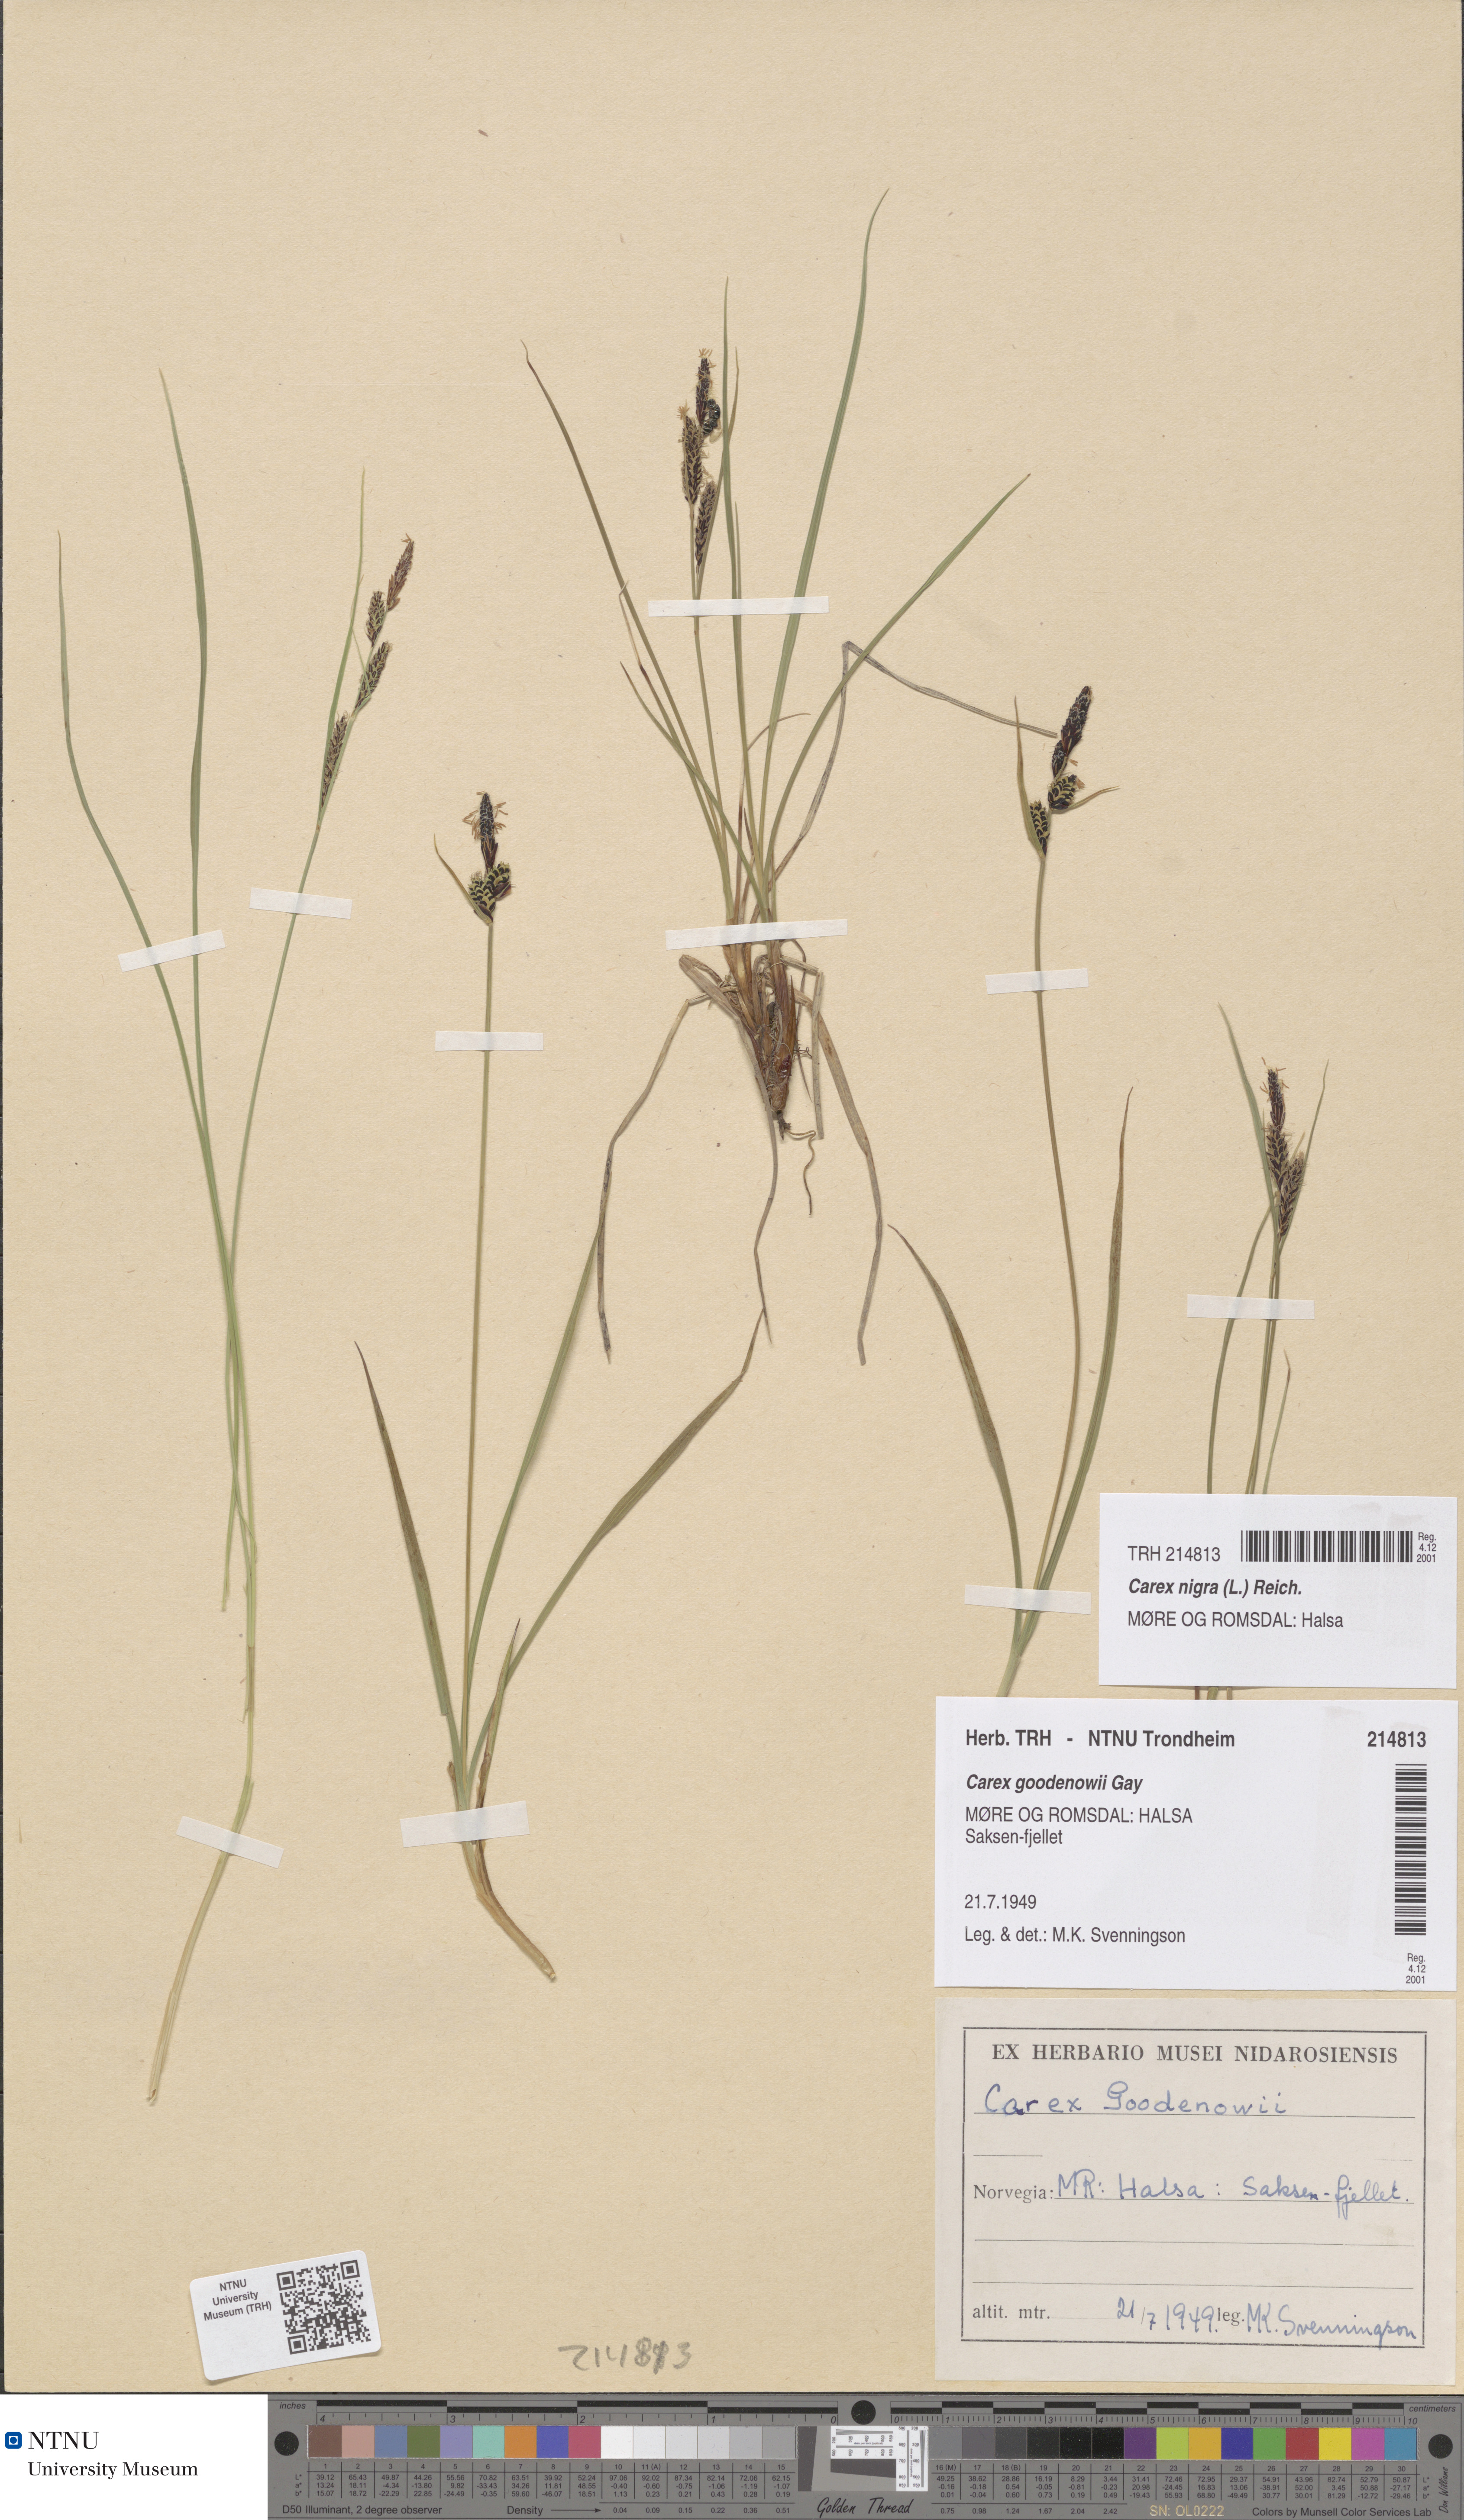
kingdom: Plantae
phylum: Tracheophyta
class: Liliopsida
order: Poales
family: Cyperaceae
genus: Carex
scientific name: Carex nigra
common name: Common sedge
